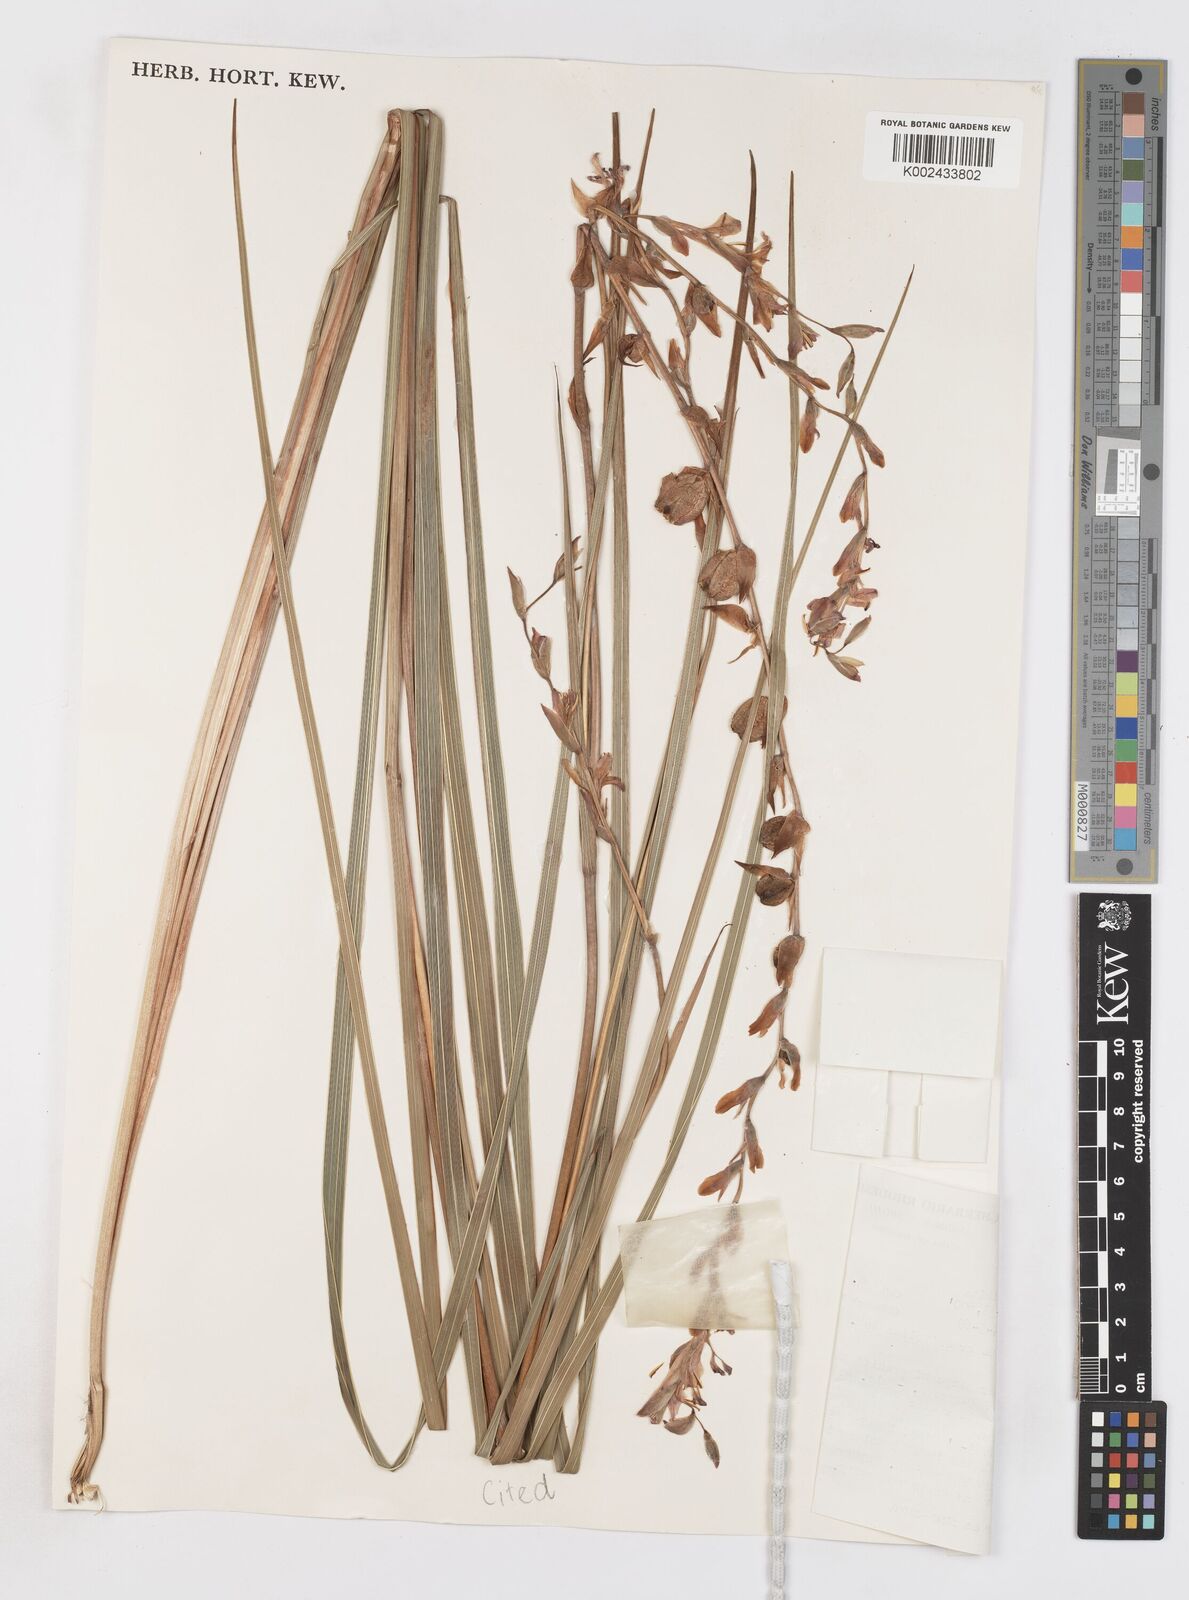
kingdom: Plantae
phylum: Tracheophyta
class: Liliopsida
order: Asparagales
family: Iridaceae
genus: Gladiolus
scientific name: Gladiolus crassifolius
